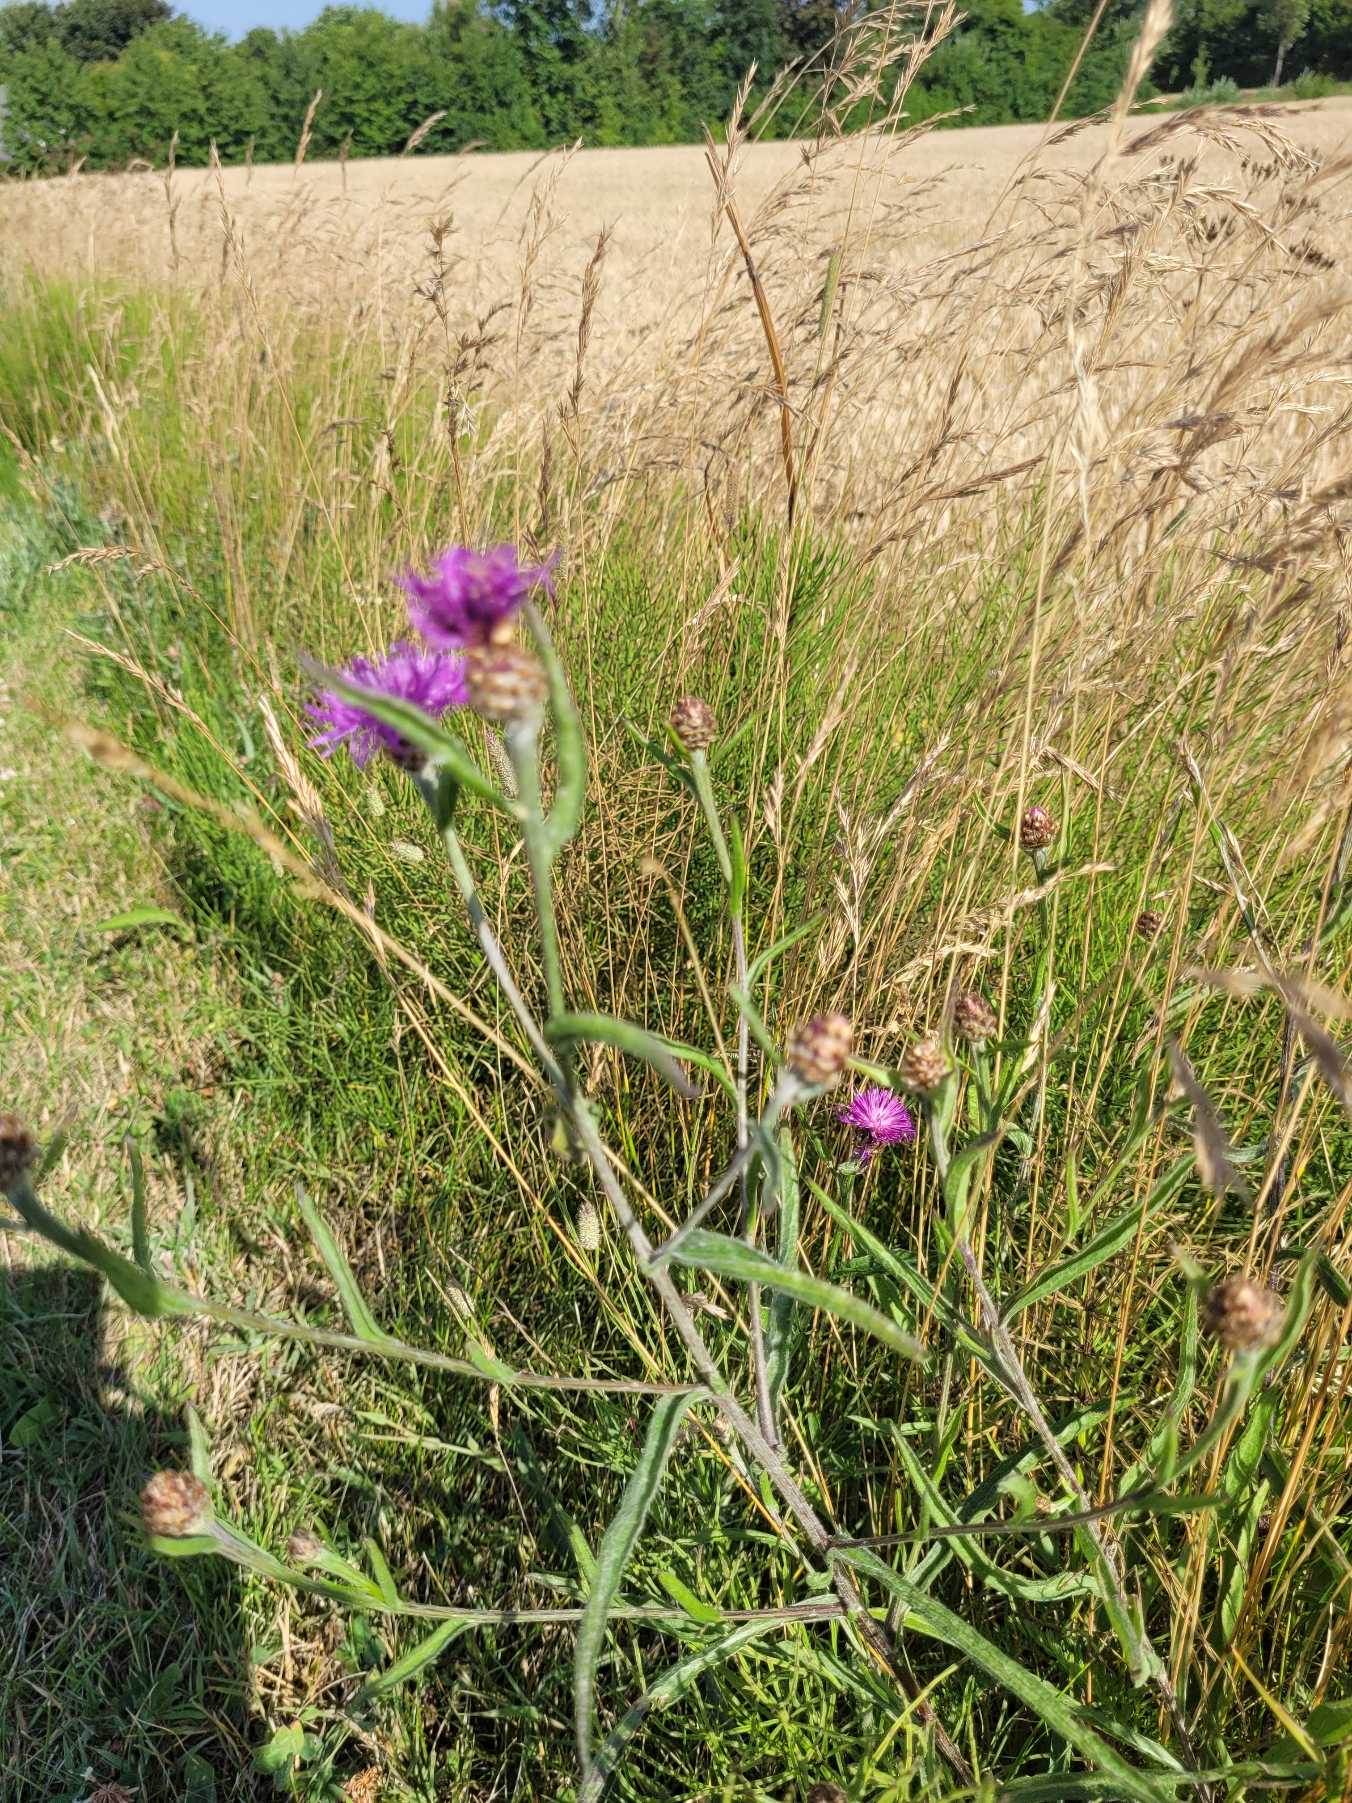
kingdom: Plantae
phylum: Tracheophyta
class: Magnoliopsida
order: Asterales
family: Asteraceae
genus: Centaurea
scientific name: Centaurea jacea
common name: Almindelig knopurt
